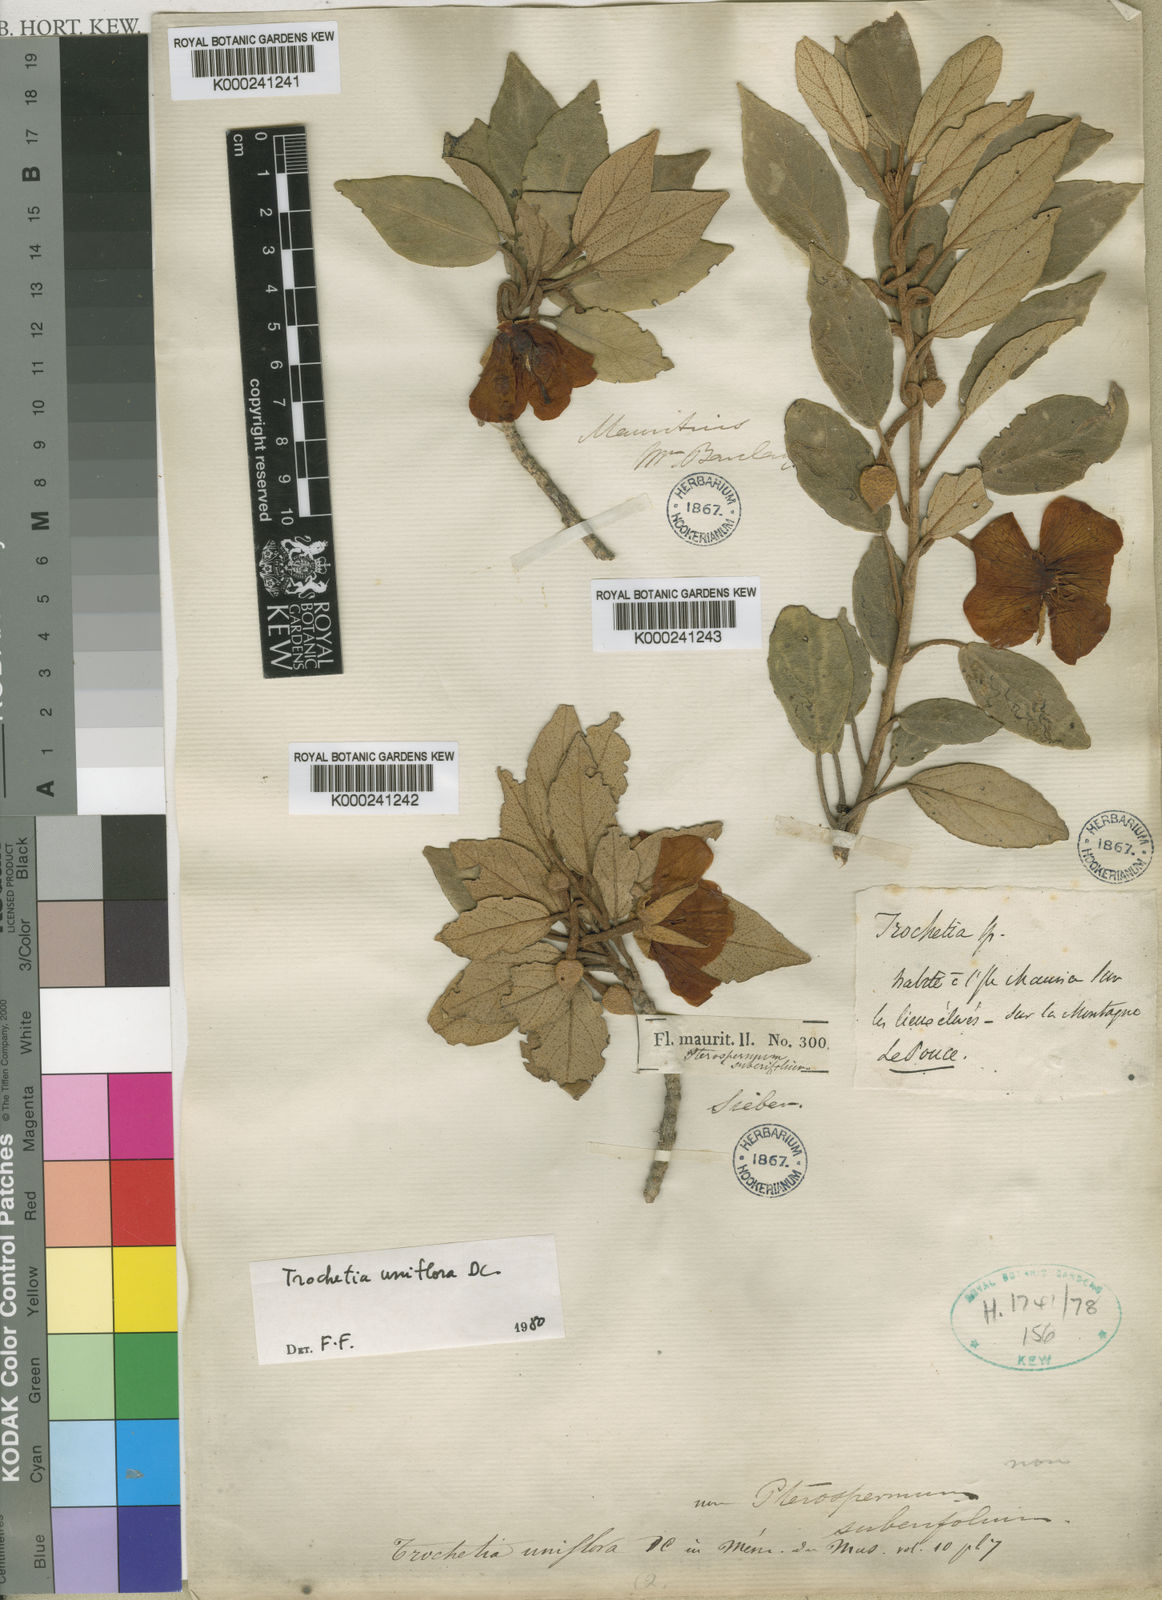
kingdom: Plantae
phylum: Tracheophyta
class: Magnoliopsida
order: Malvales
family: Malvaceae
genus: Ruizia
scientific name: Ruizia uniflora
